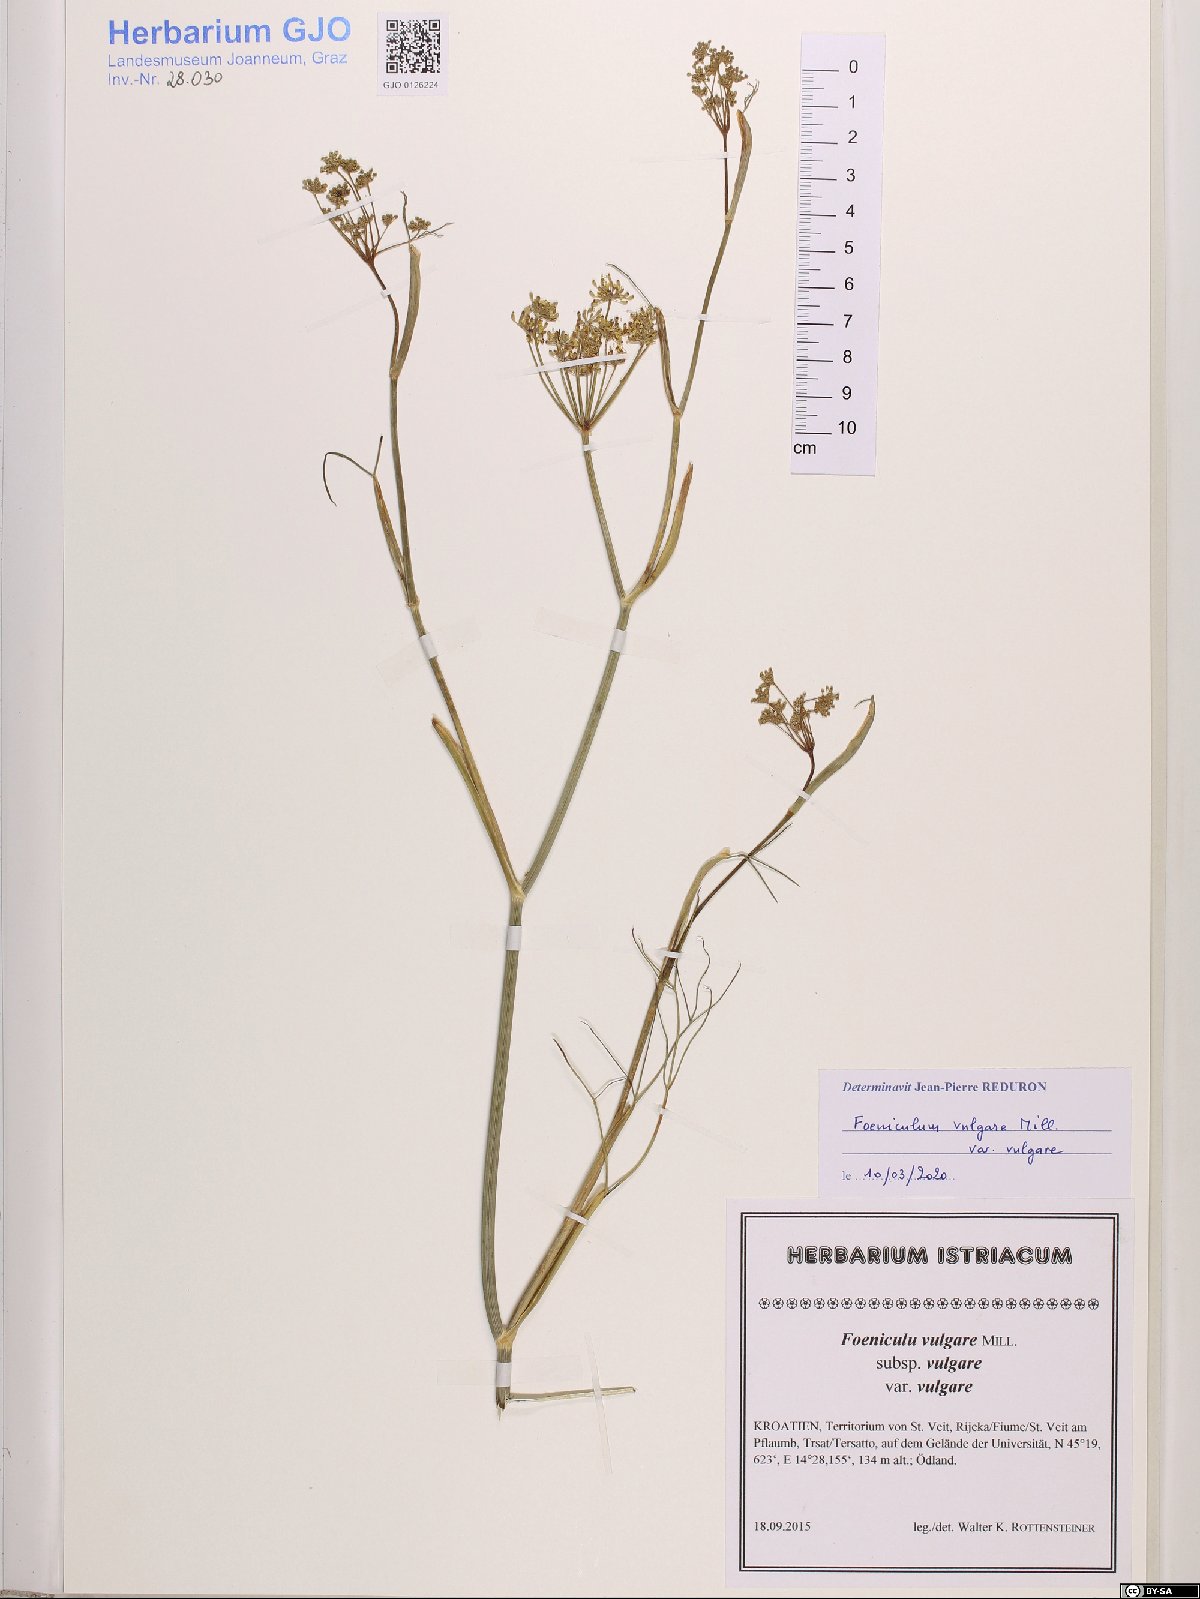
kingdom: Plantae
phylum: Tracheophyta
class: Magnoliopsida
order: Apiales
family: Apiaceae
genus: Foeniculum
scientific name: Foeniculum vulgare
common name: Fennel
